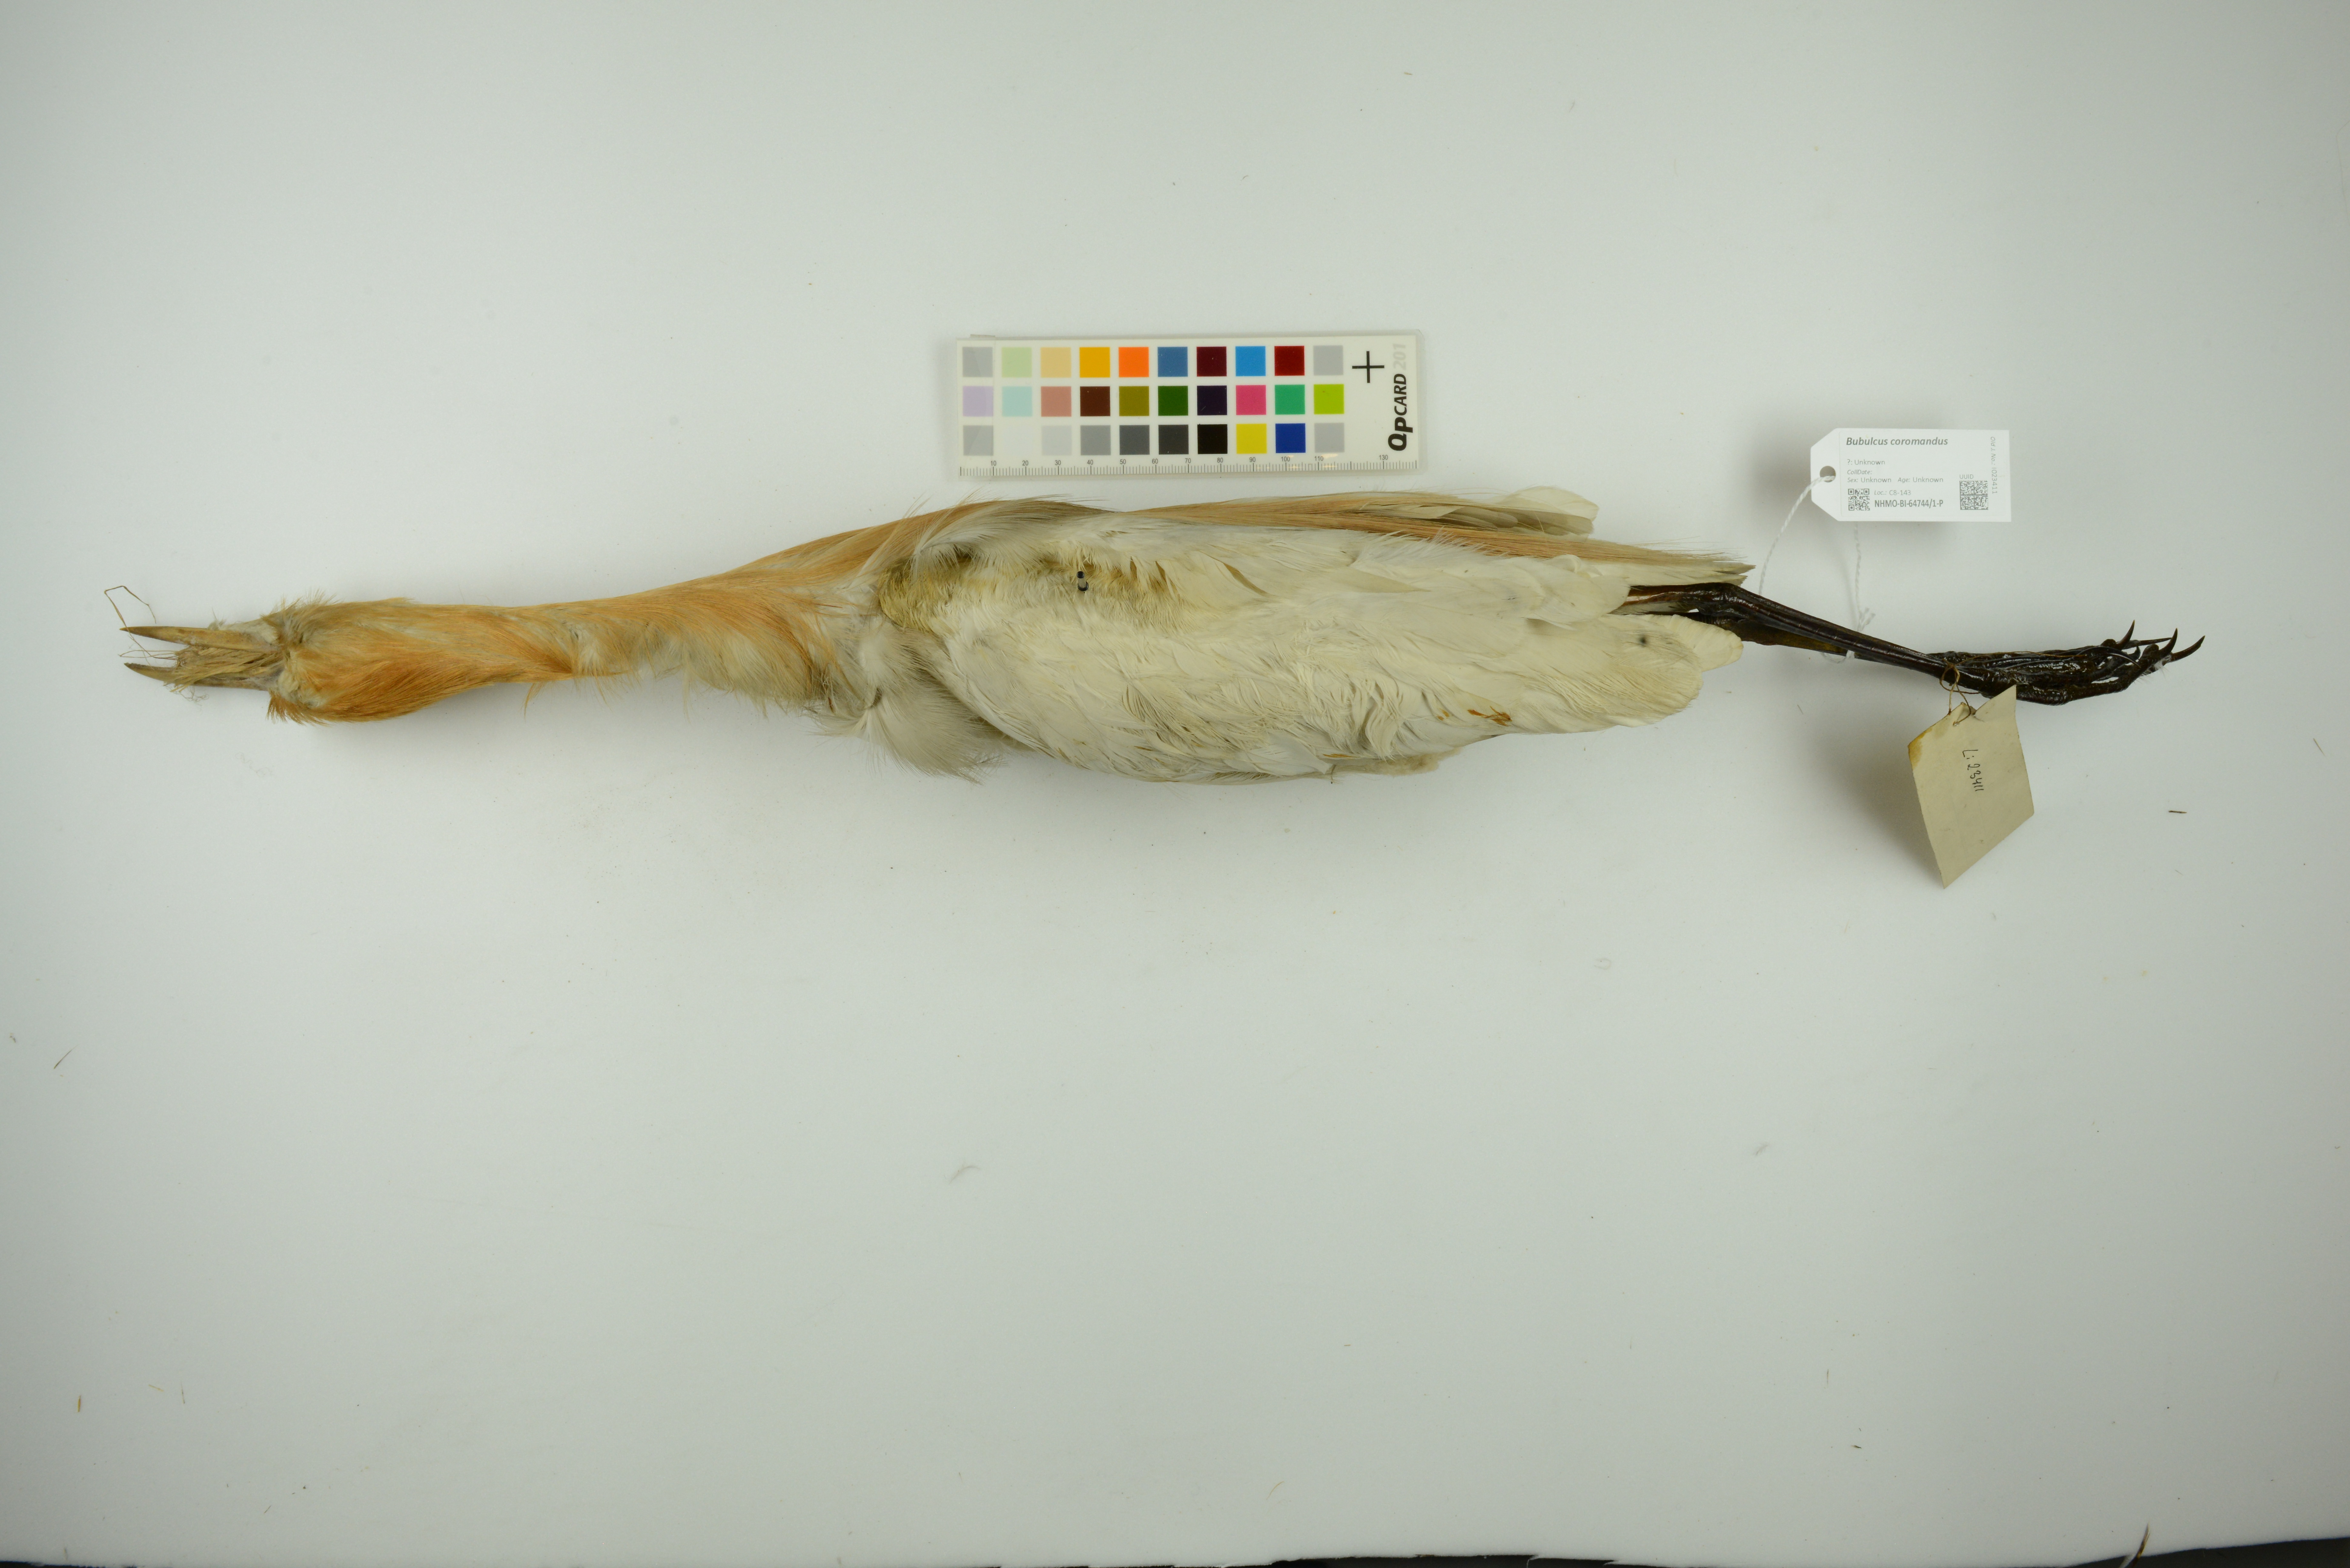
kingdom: Animalia
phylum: Chordata
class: Aves
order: Pelecaniformes
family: Ardeidae
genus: Bubulcus
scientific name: Bubulcus coromandus
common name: Eastern cattle egret
